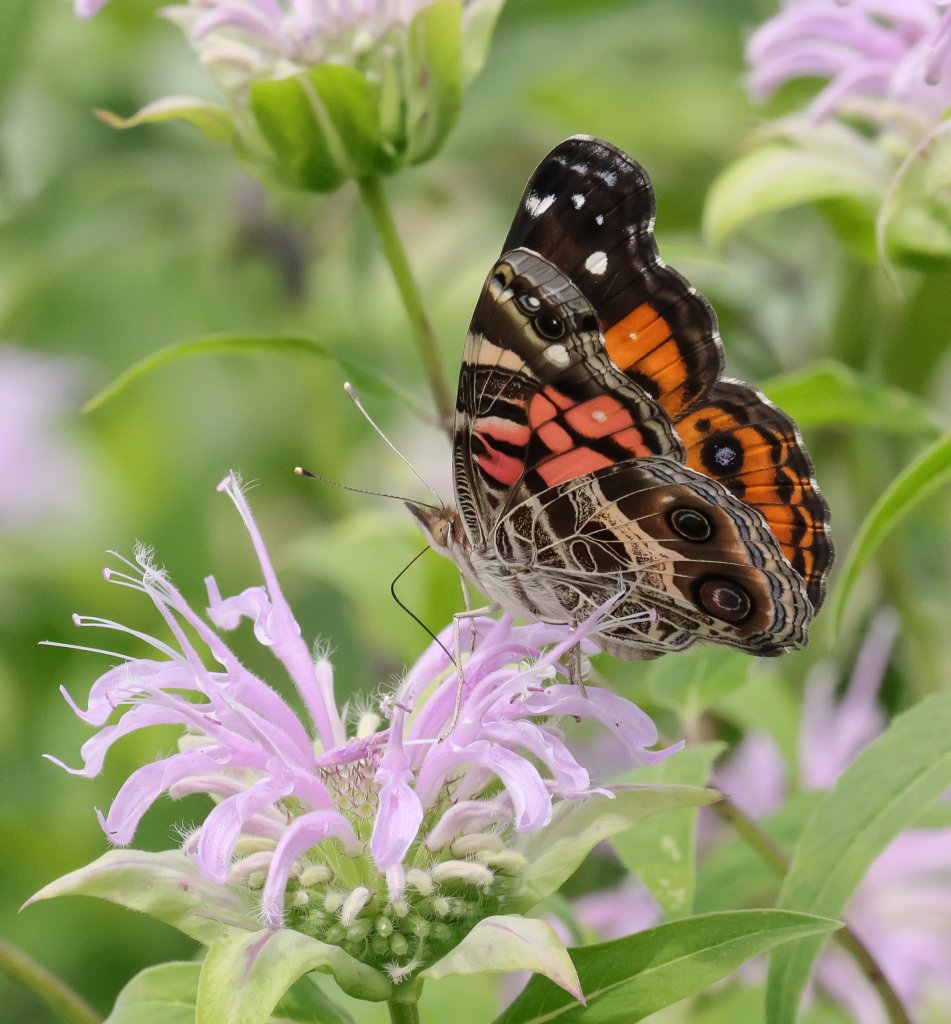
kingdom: Animalia
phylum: Arthropoda
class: Insecta
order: Lepidoptera
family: Nymphalidae
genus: Vanessa
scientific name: Vanessa virginiensis
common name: American Lady
